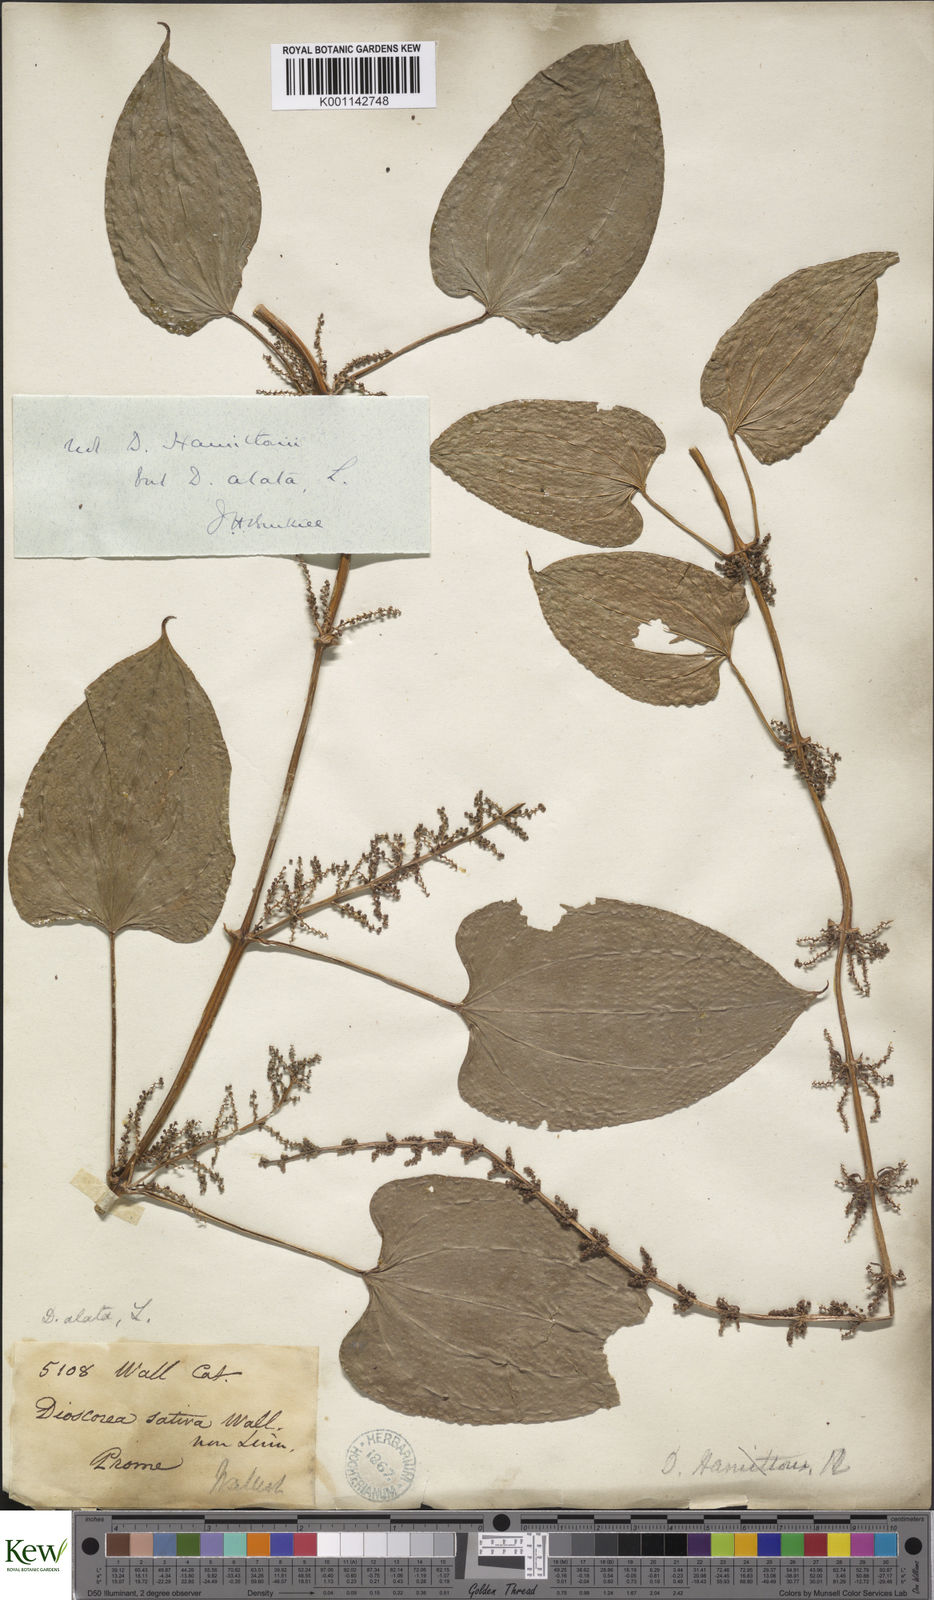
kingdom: Plantae
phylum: Tracheophyta
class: Liliopsida
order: Dioscoreales
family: Dioscoreaceae
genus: Dioscorea
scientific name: Dioscorea alata
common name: Water yam
